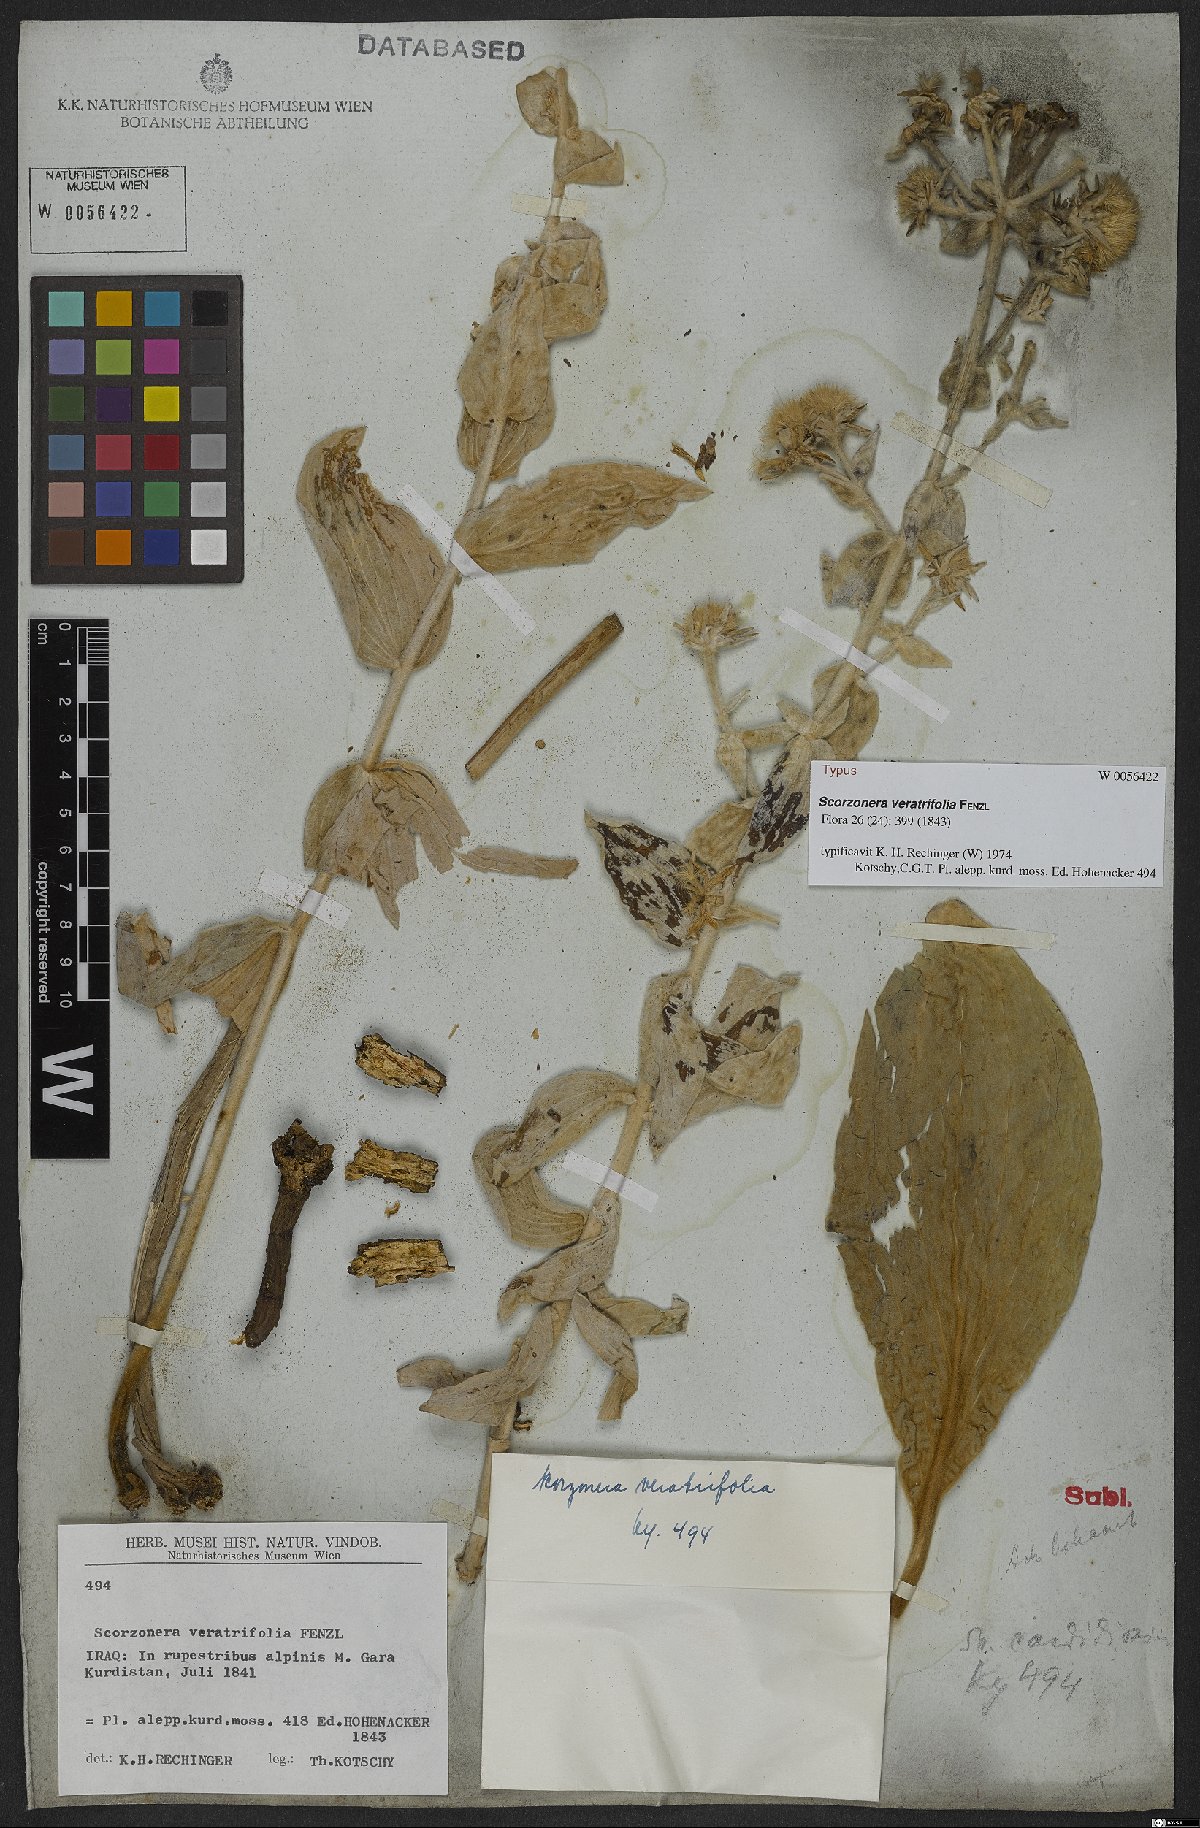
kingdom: Plantae
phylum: Tracheophyta
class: Magnoliopsida
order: Asterales
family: Asteraceae
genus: Guneria
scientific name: Guneria veratrifolia
